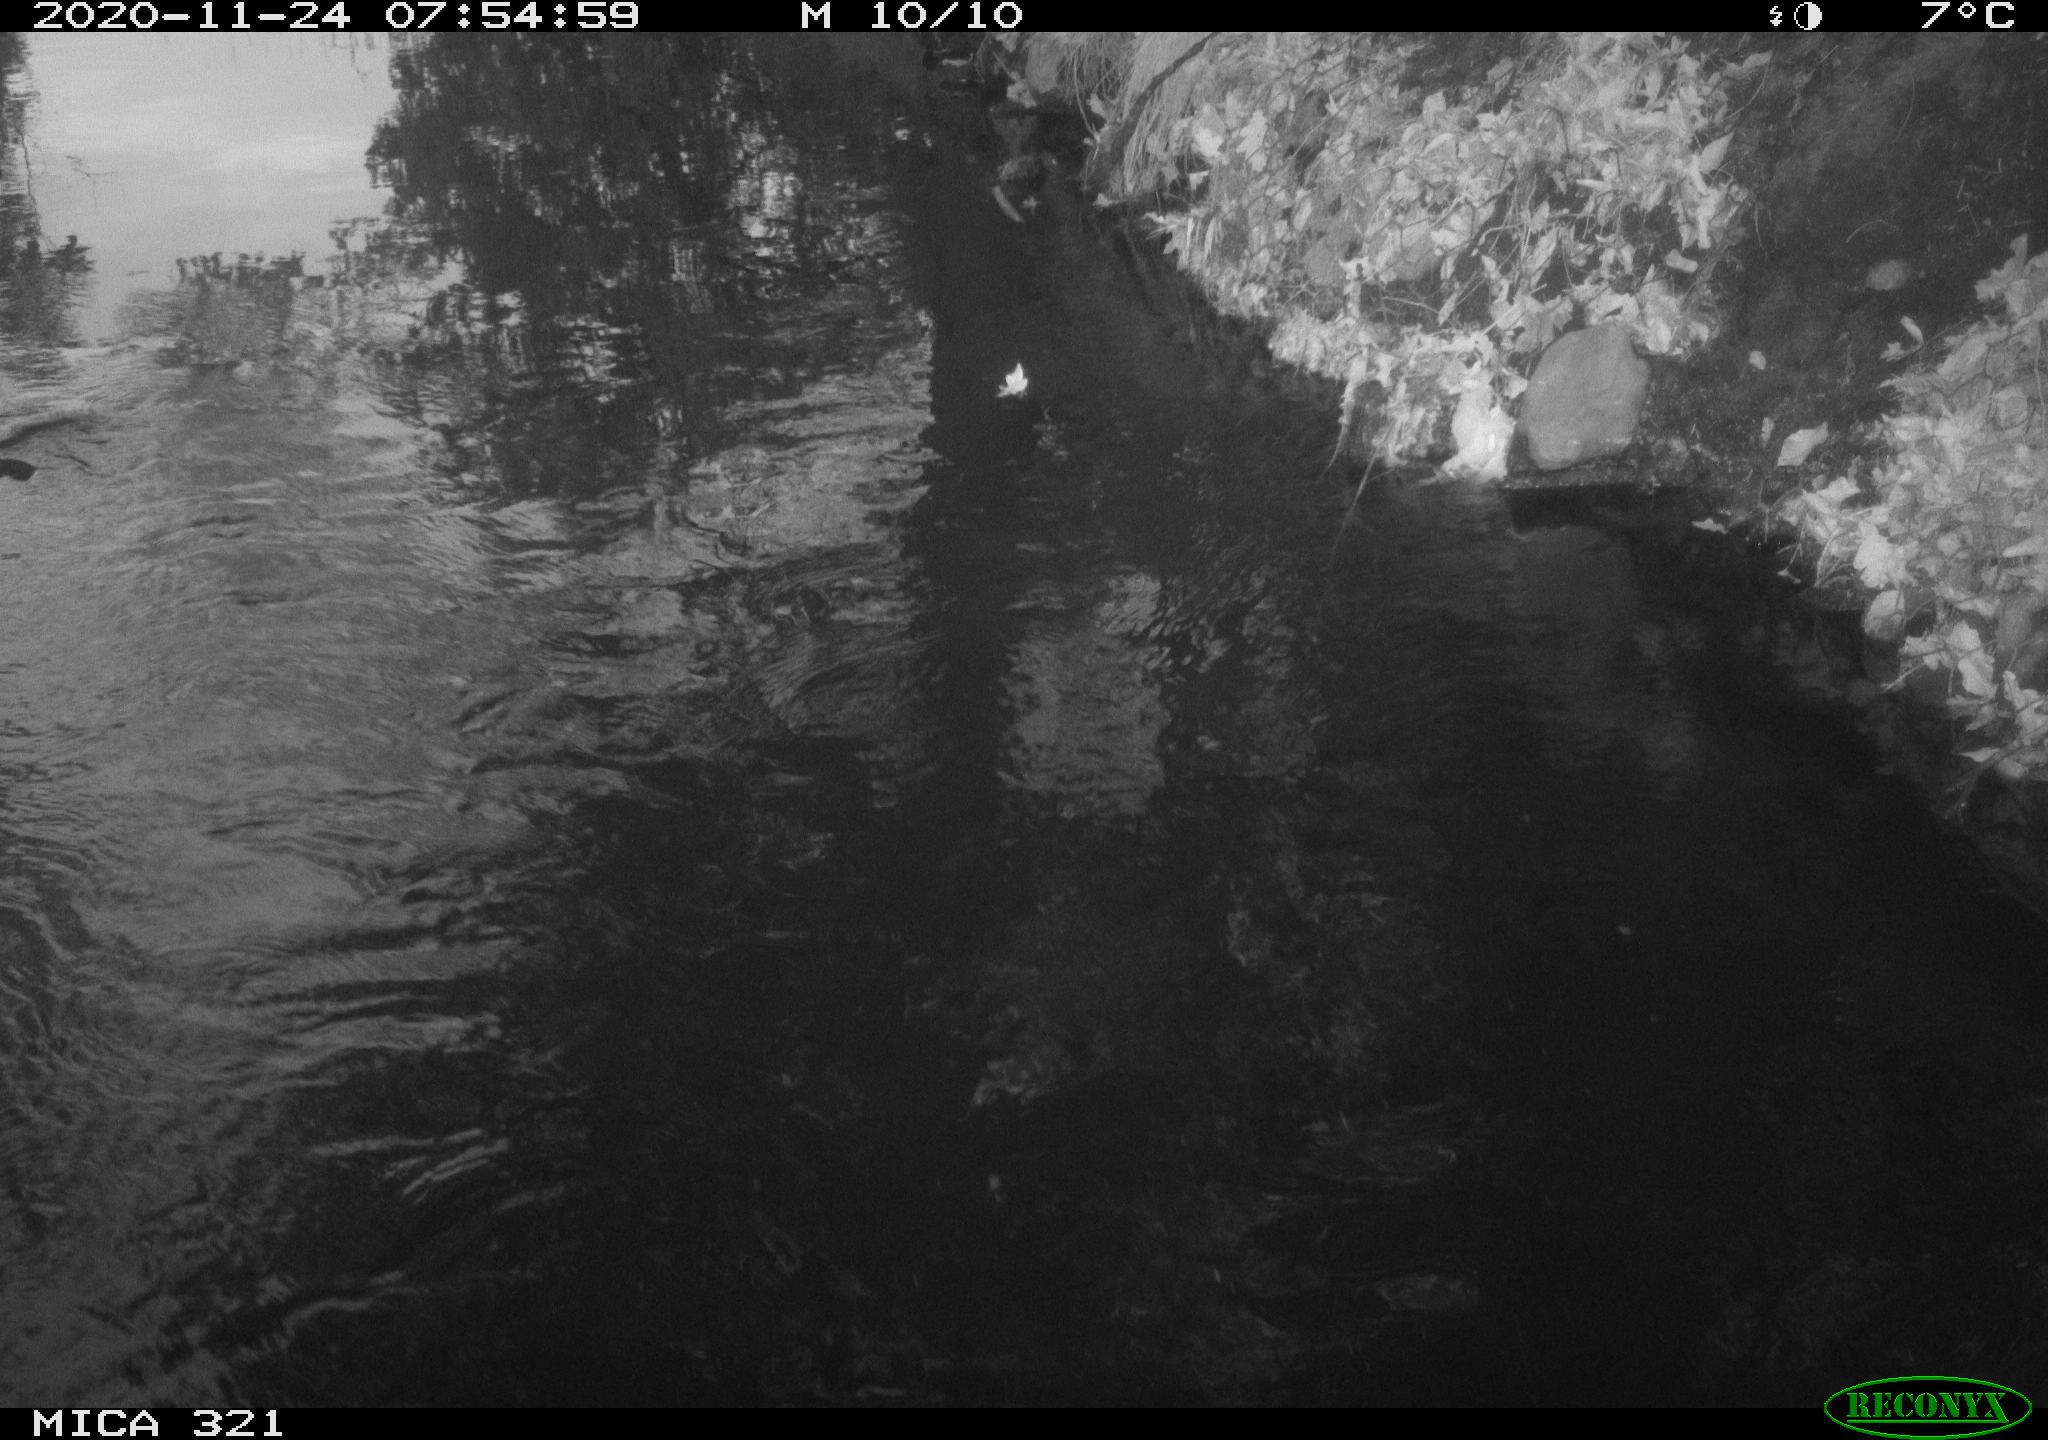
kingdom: Animalia
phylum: Chordata
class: Aves
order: Anseriformes
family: Anatidae
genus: Anas
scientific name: Anas platyrhynchos
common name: Mallard
